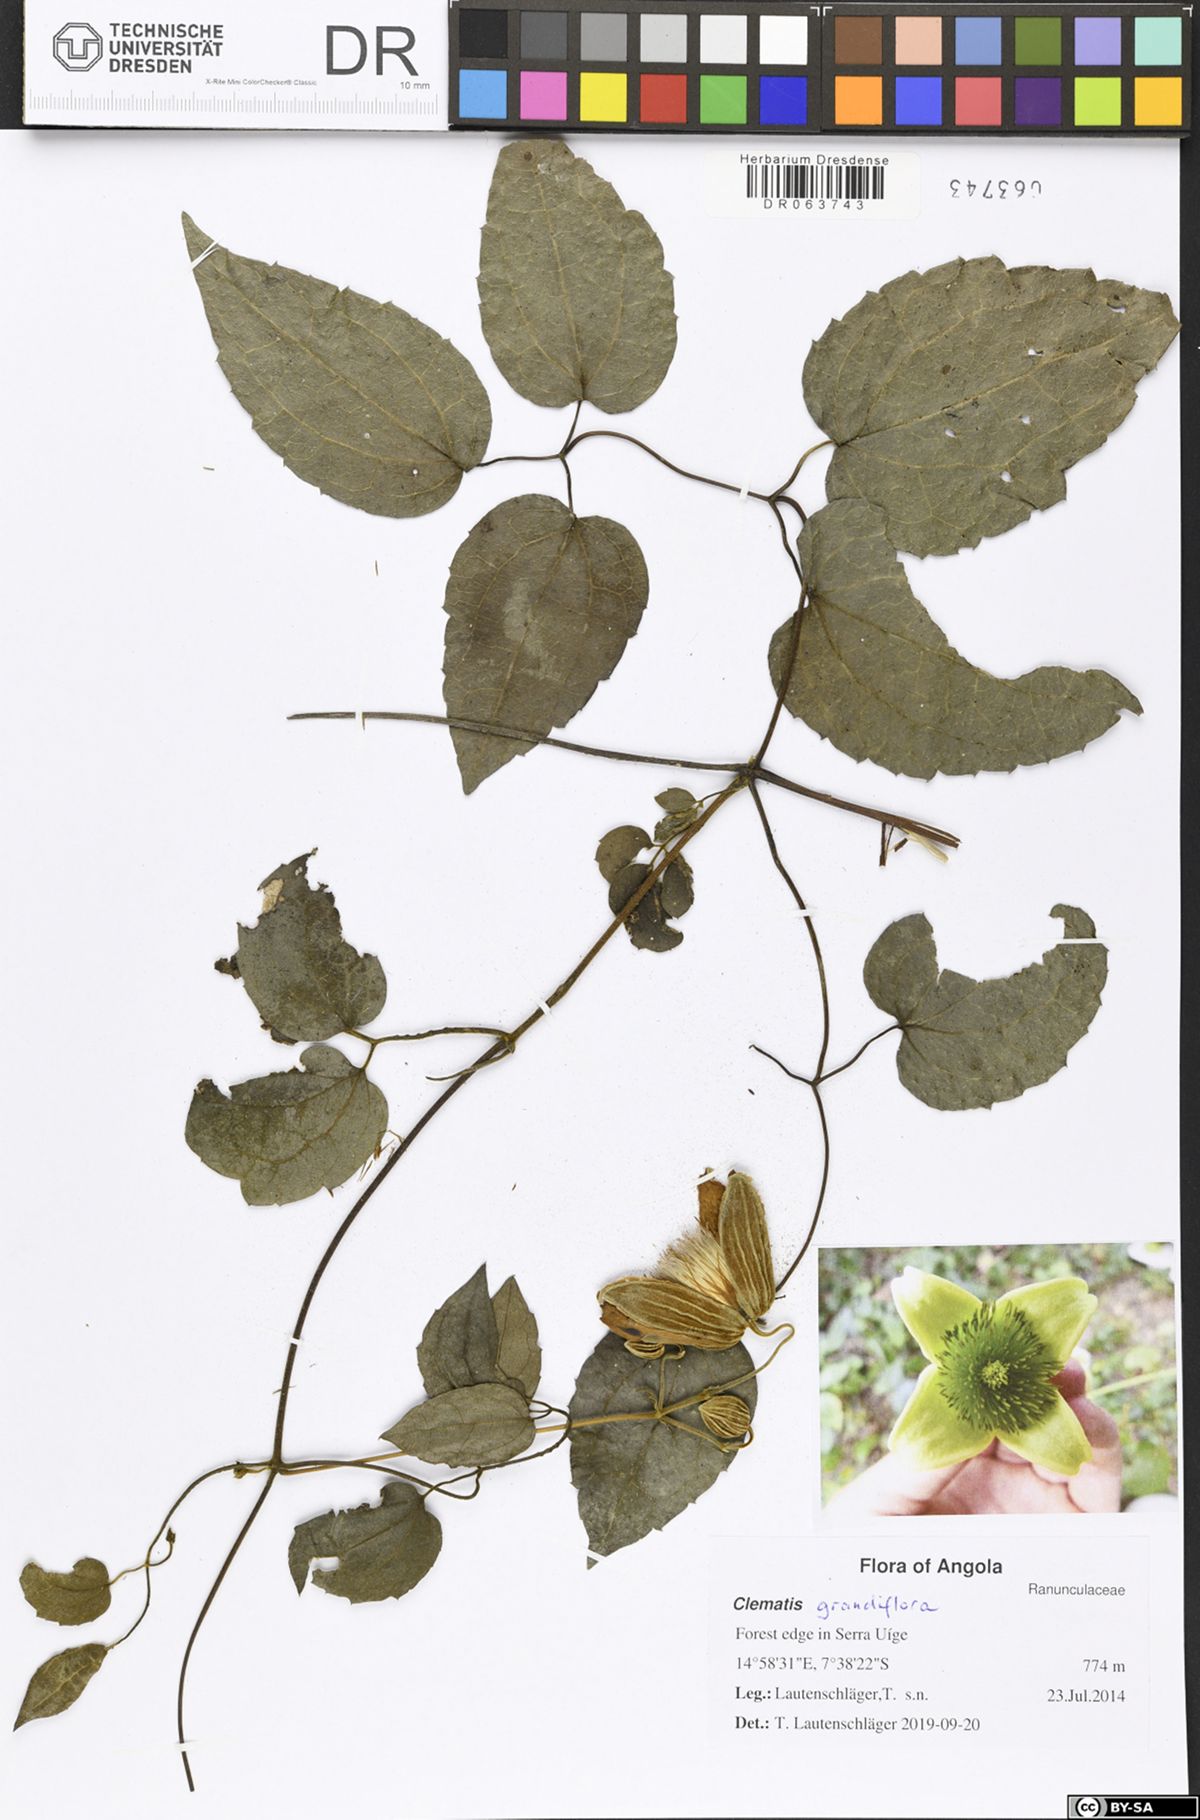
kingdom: Plantae
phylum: Tracheophyta
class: Magnoliopsida
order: Ranunculales
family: Ranunculaceae
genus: Clematis
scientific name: Clematis grandiflora
